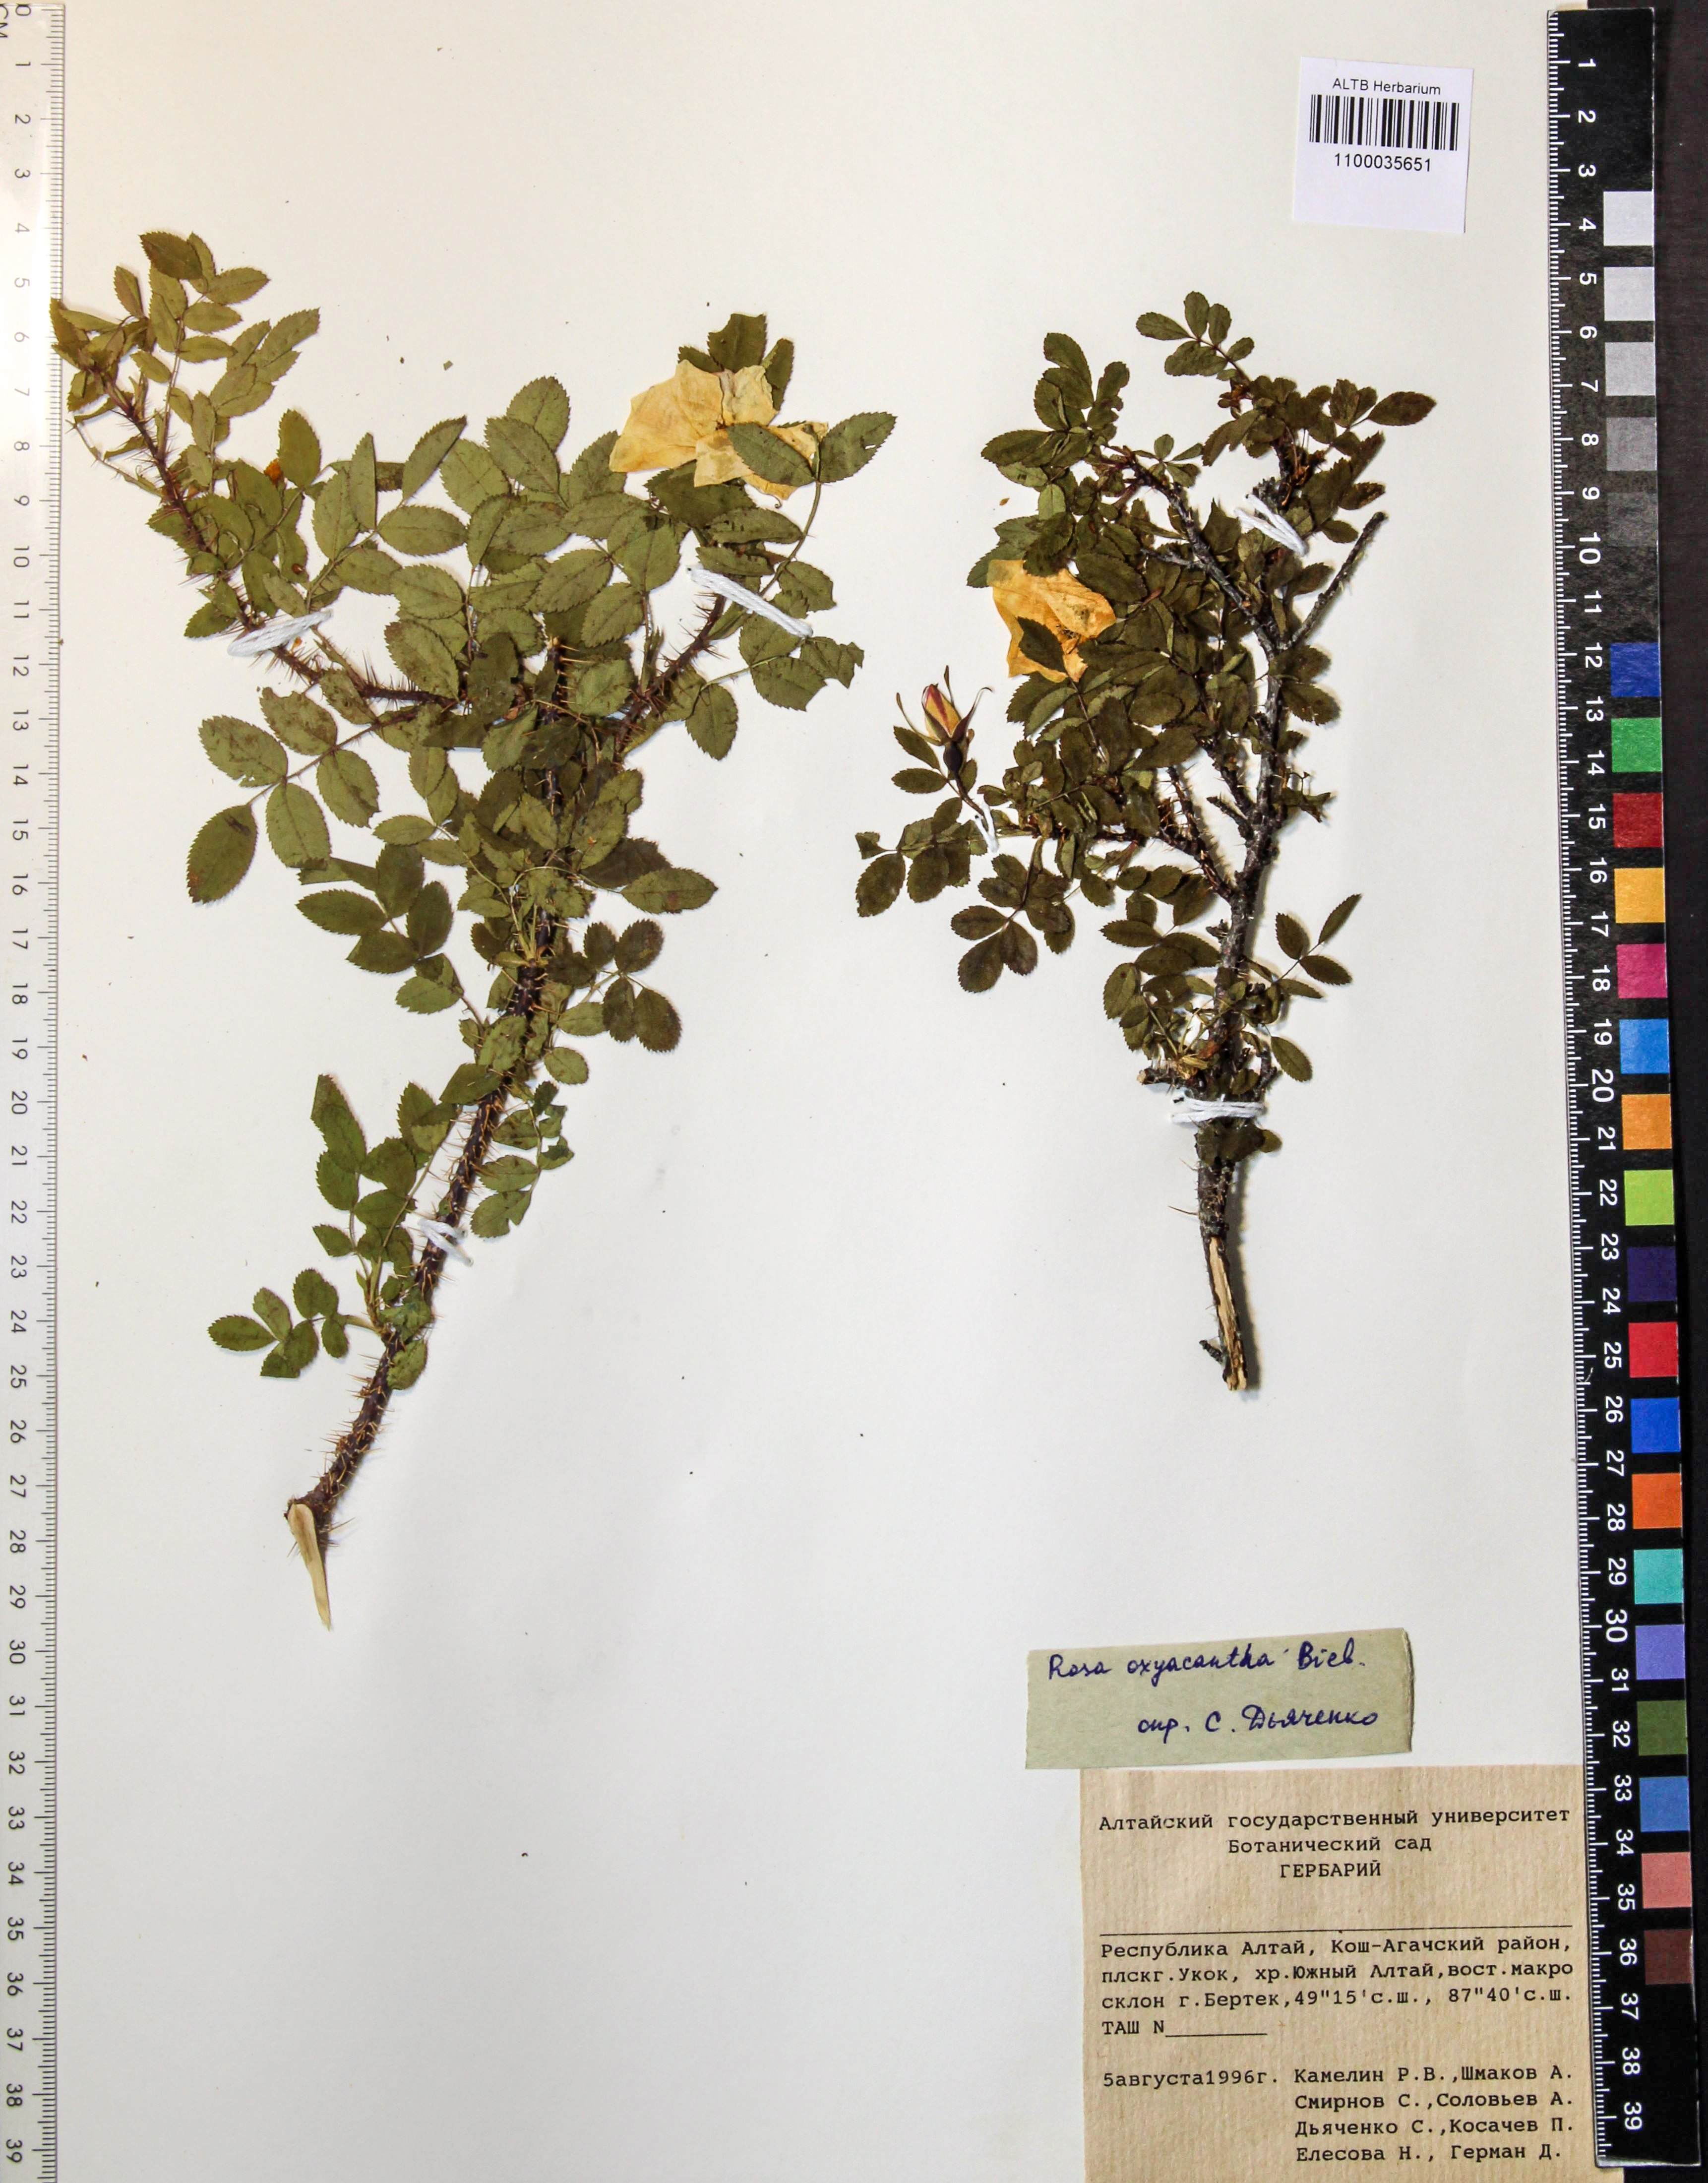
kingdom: Plantae
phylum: Tracheophyta
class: Magnoliopsida
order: Rosales
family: Rosaceae
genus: Rosa
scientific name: Rosa oxyacantha
